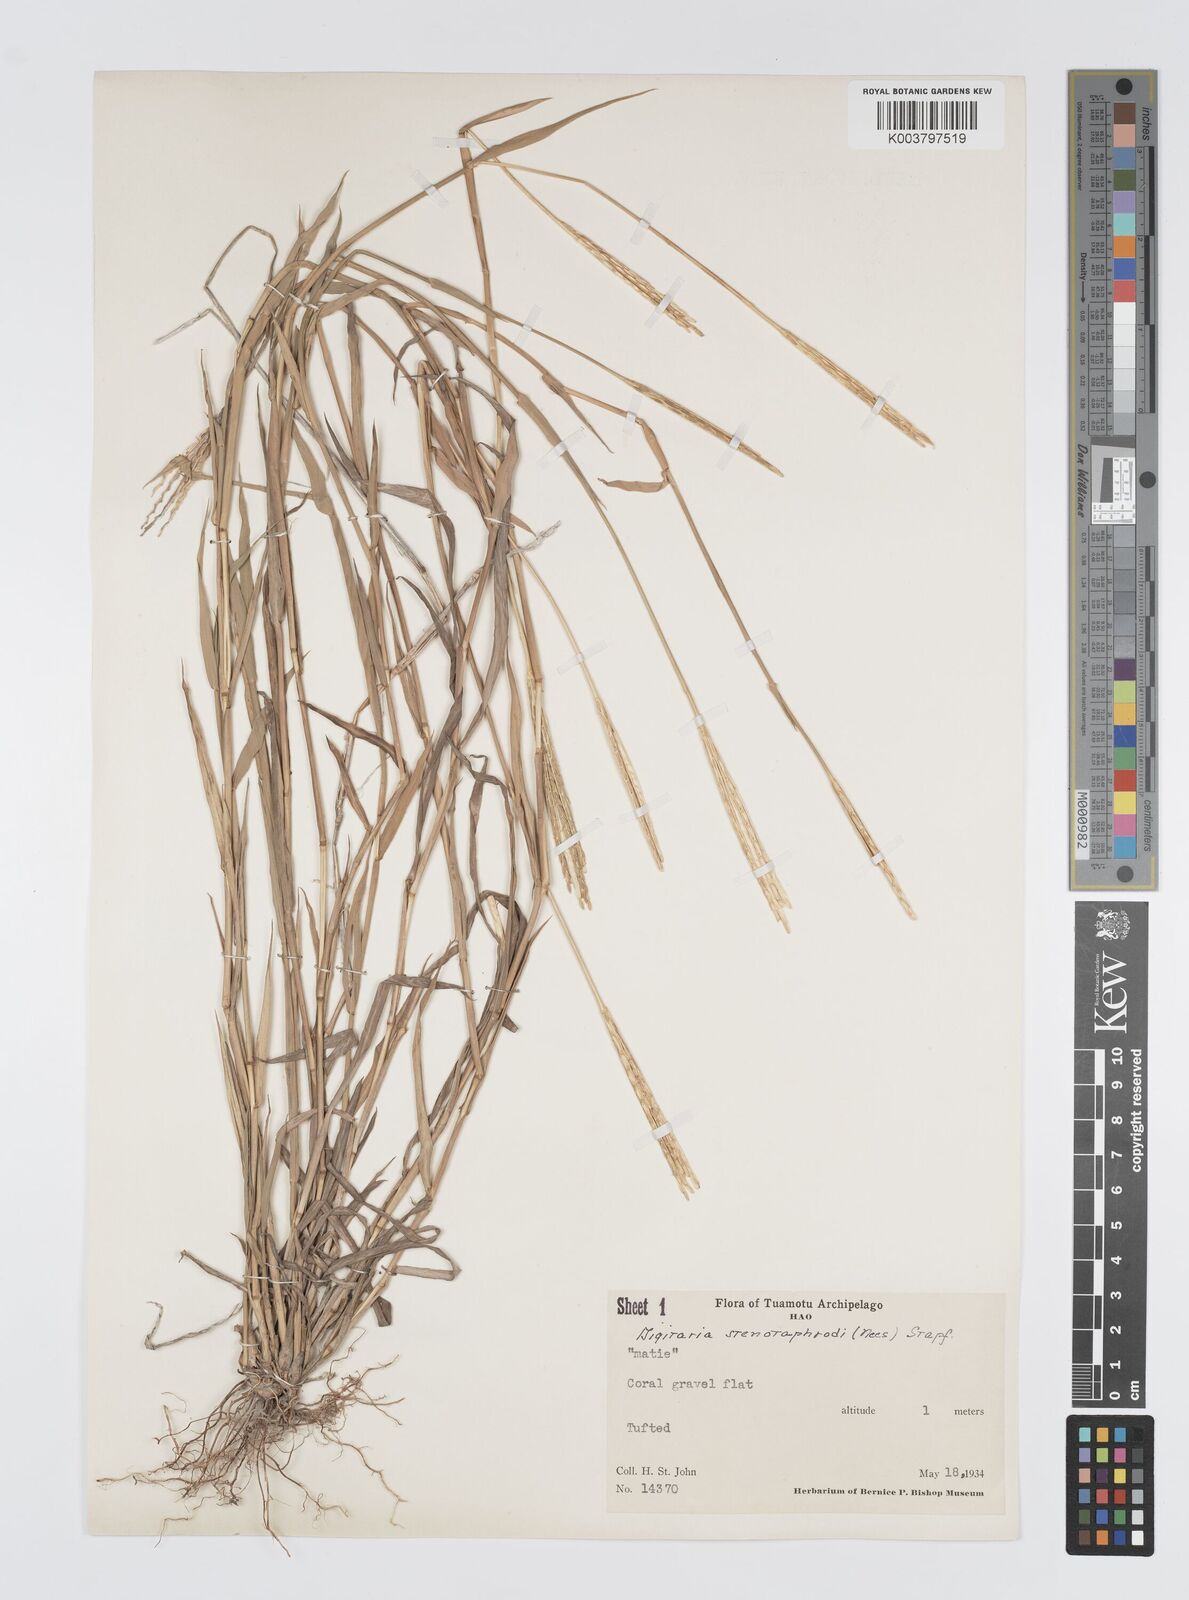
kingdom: Plantae
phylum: Tracheophyta
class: Liliopsida
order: Poales
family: Poaceae
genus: Digitaria
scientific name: Digitaria stenotaphrodes
